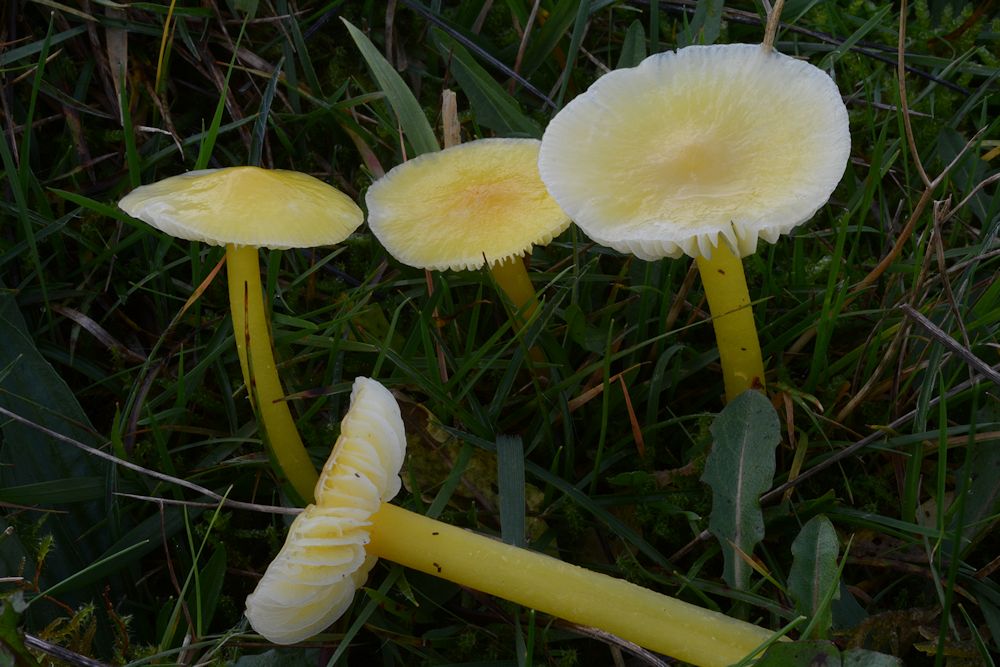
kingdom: Fungi
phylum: Basidiomycota
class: Agaricomycetes
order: Agaricales
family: Hygrophoraceae
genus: Hygrocybe
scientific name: Hygrocybe glutinipes
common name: slimstokket vokshat
